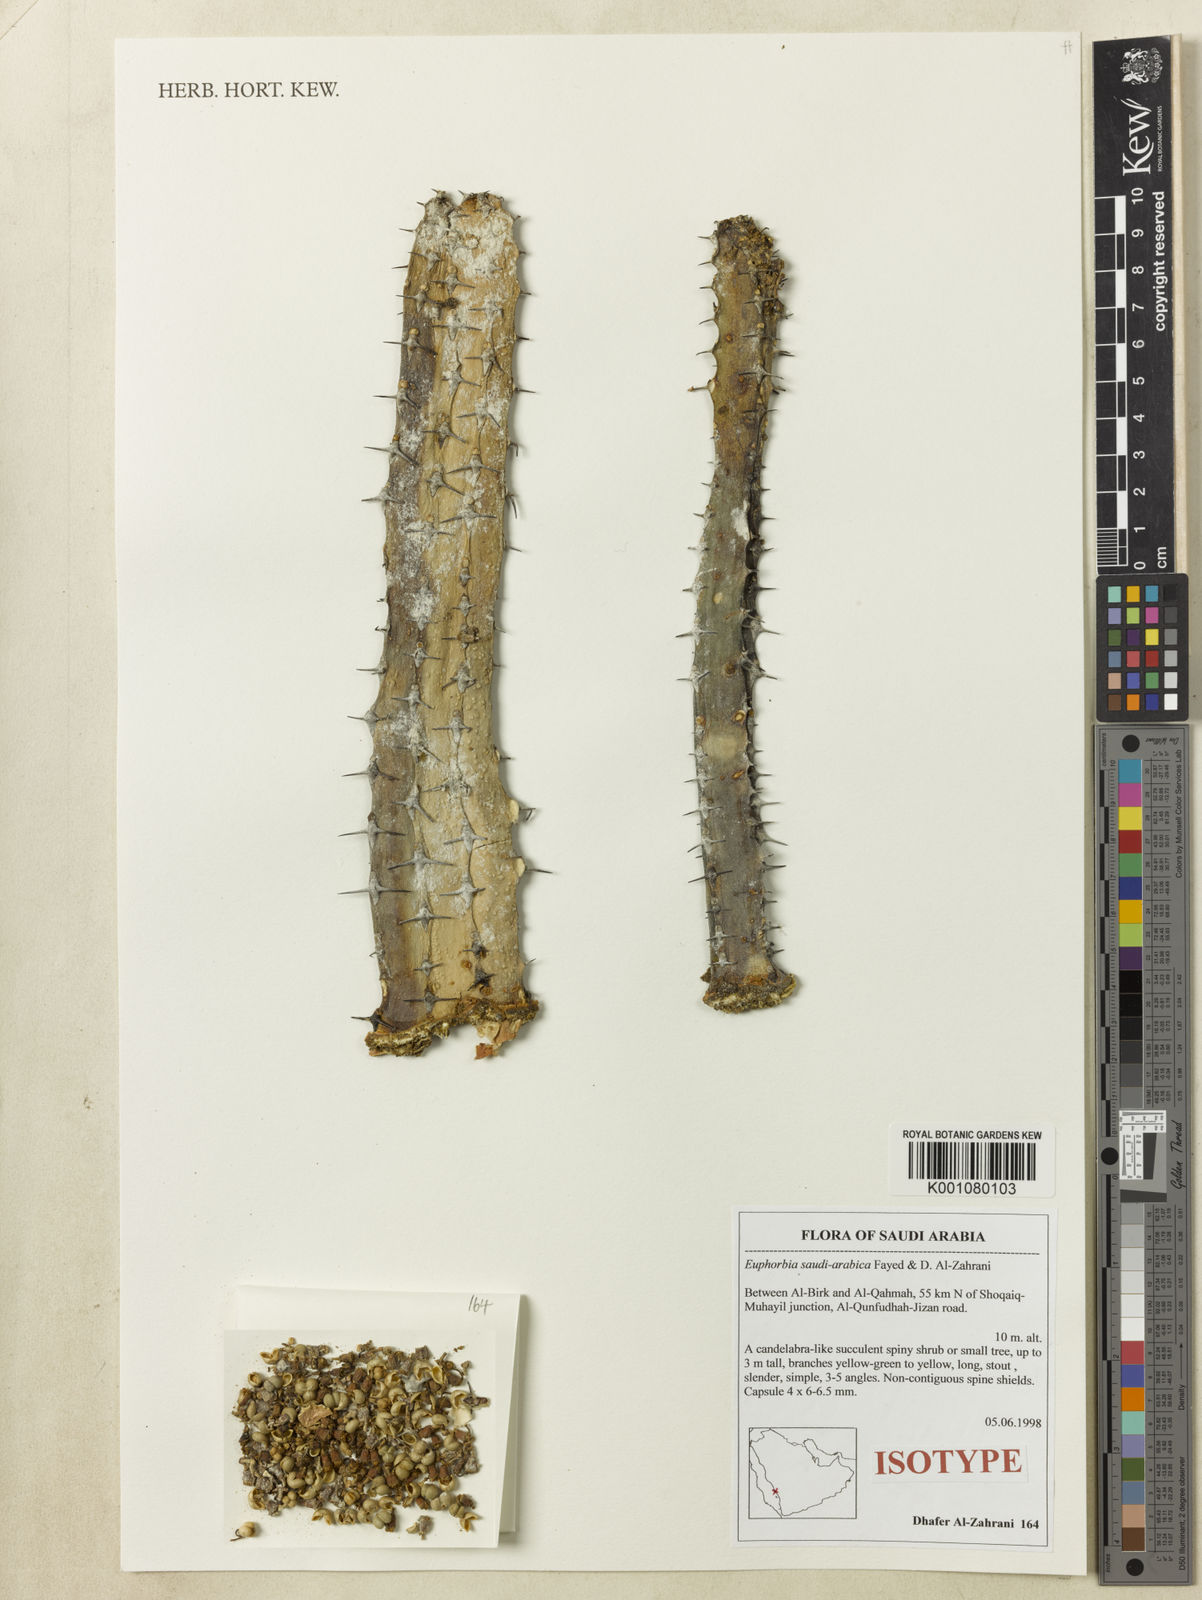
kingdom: Plantae
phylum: Tracheophyta
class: Magnoliopsida
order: Malpighiales
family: Euphorbiaceae
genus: Euphorbia
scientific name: Euphorbia saudiarabica
